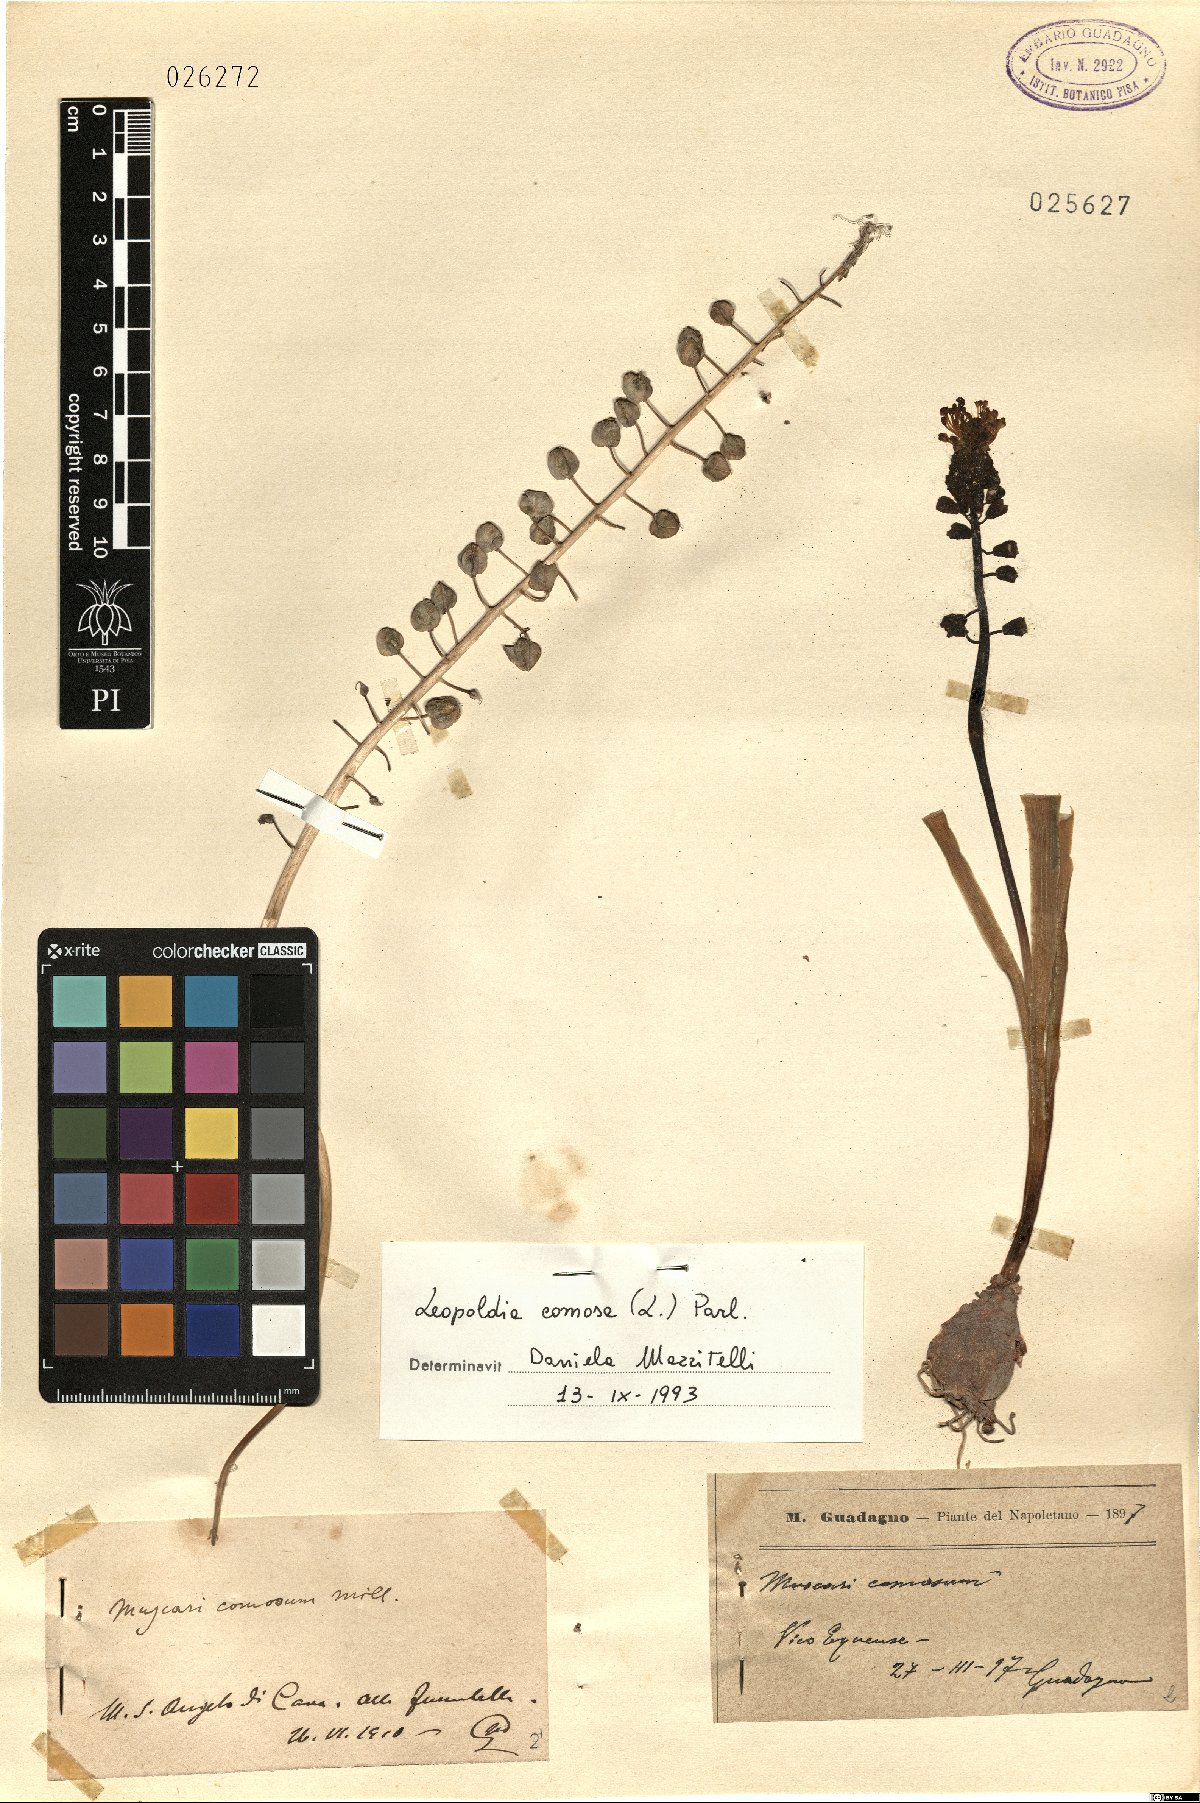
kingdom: Plantae
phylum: Tracheophyta
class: Liliopsida
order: Asparagales
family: Asparagaceae
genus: Muscari
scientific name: Muscari comosum
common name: Tassel hyacinth
